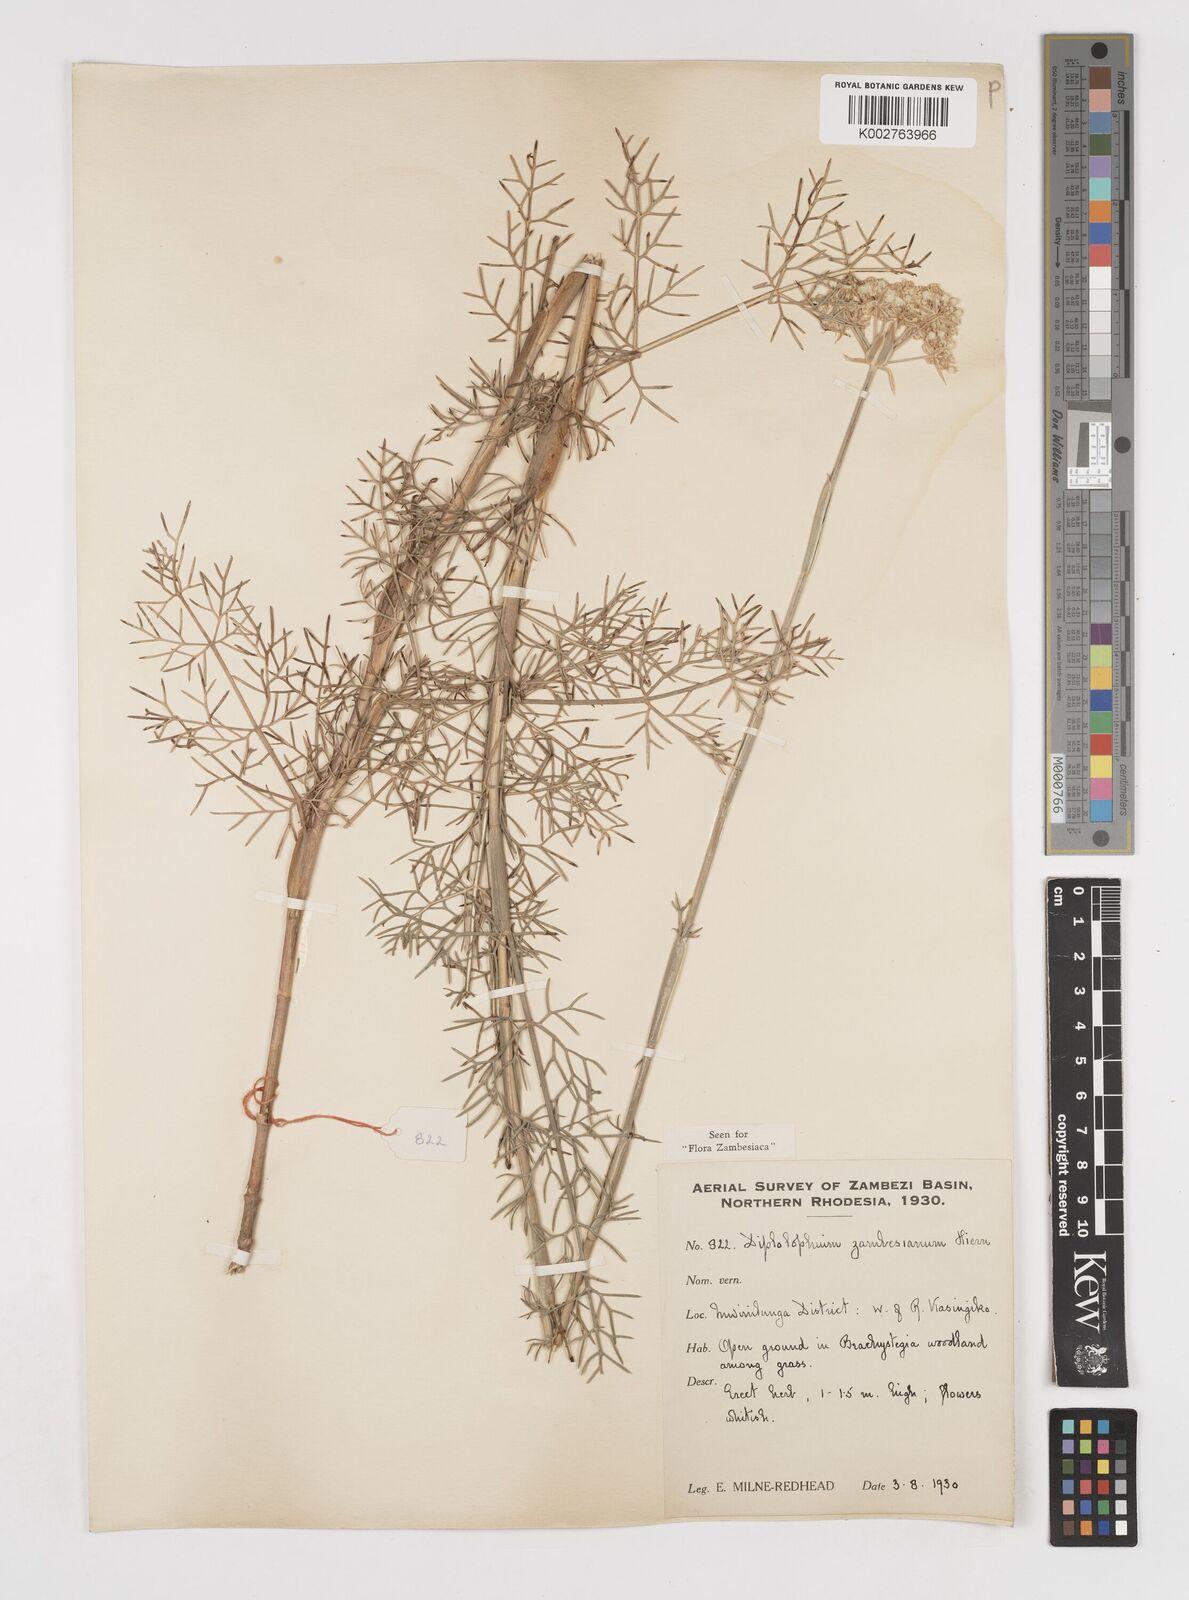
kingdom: Plantae
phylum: Tracheophyta
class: Magnoliopsida
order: Apiales
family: Apiaceae
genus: Diplolophium
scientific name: Diplolophium zambesianum
